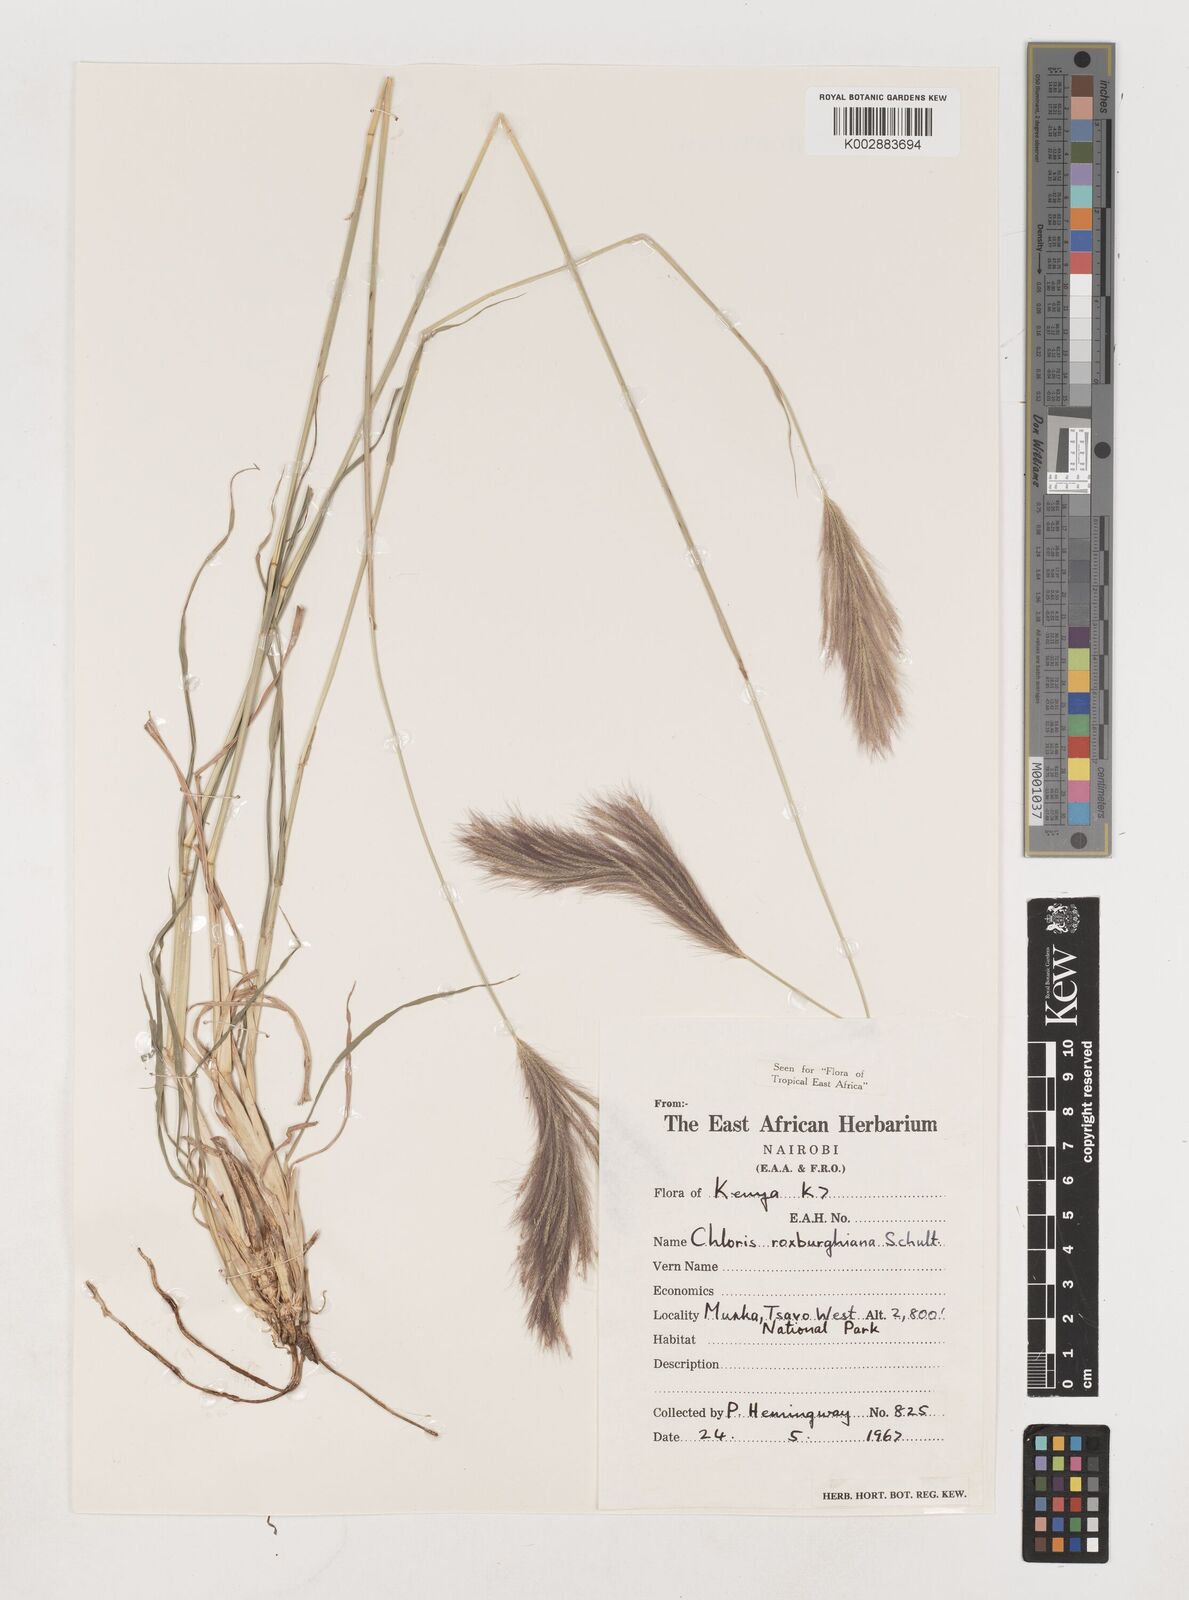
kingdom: Plantae
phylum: Tracheophyta
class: Liliopsida
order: Poales
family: Poaceae
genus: Tetrapogon
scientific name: Tetrapogon roxburghiana
